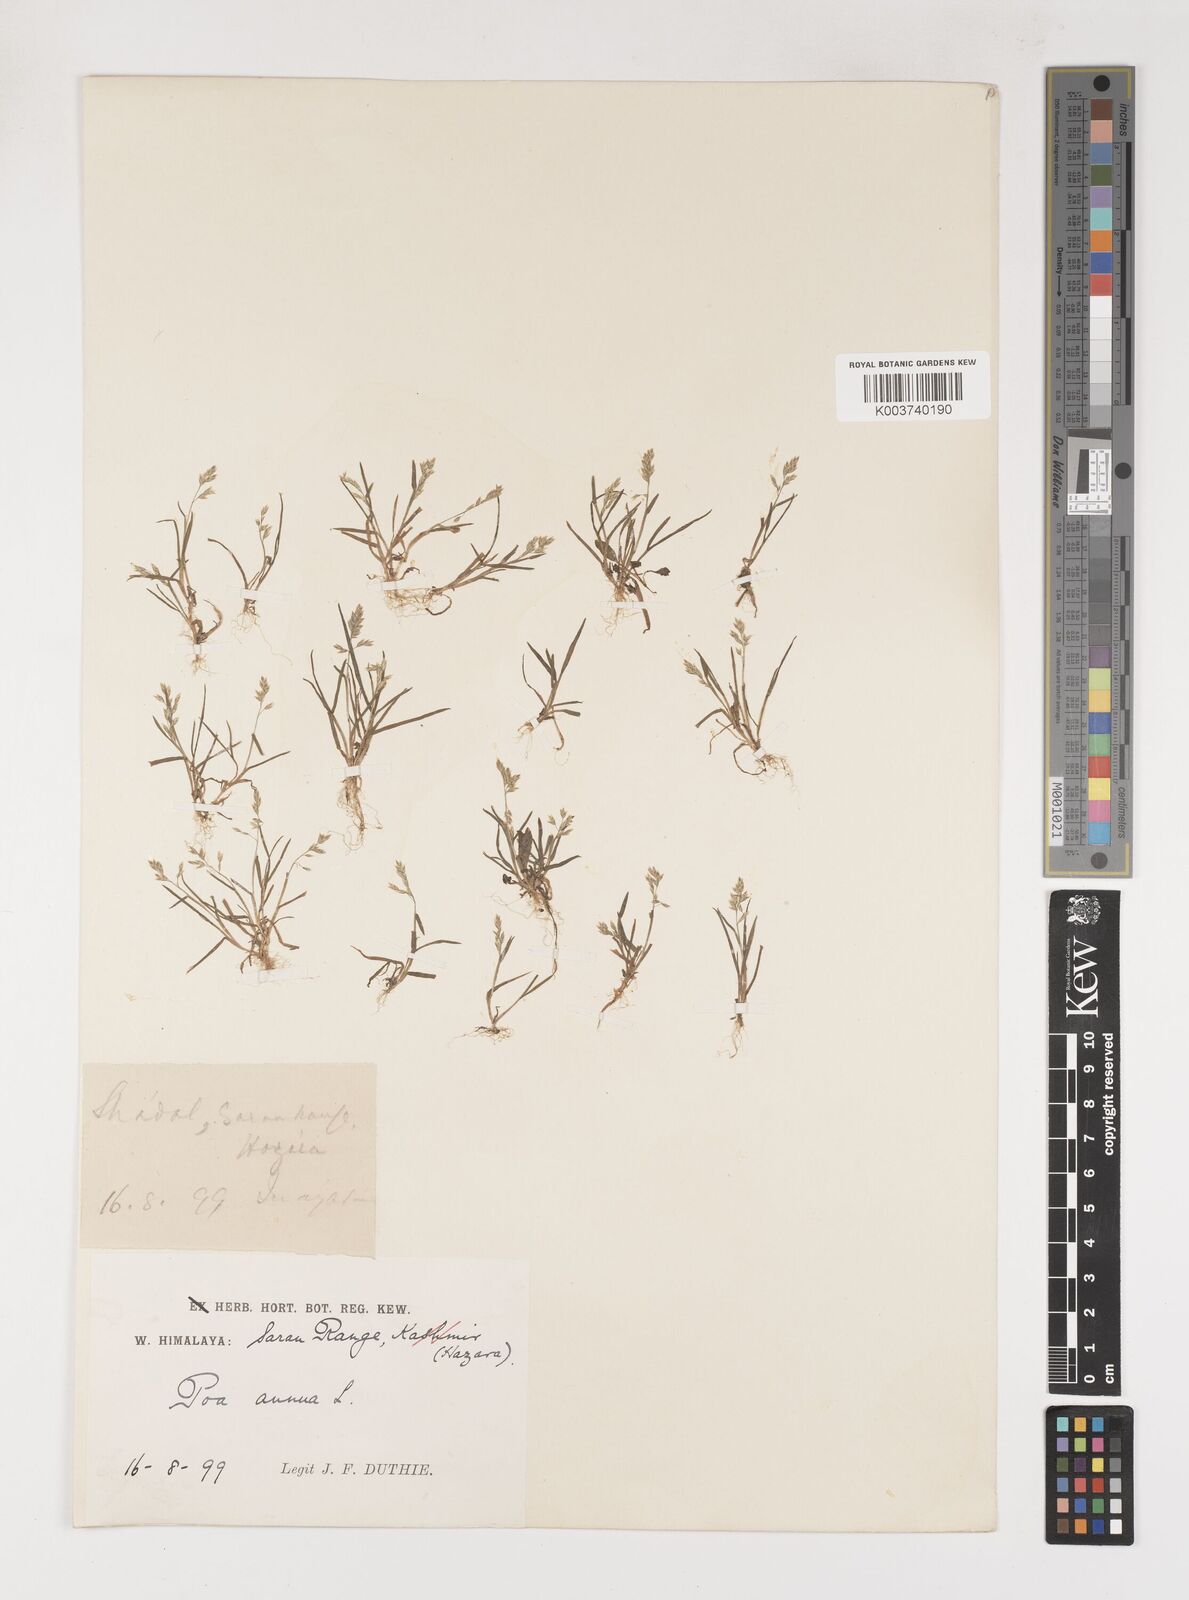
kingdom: Plantae
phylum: Tracheophyta
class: Liliopsida
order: Poales
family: Poaceae
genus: Poa
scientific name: Poa annua
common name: Annual bluegrass
